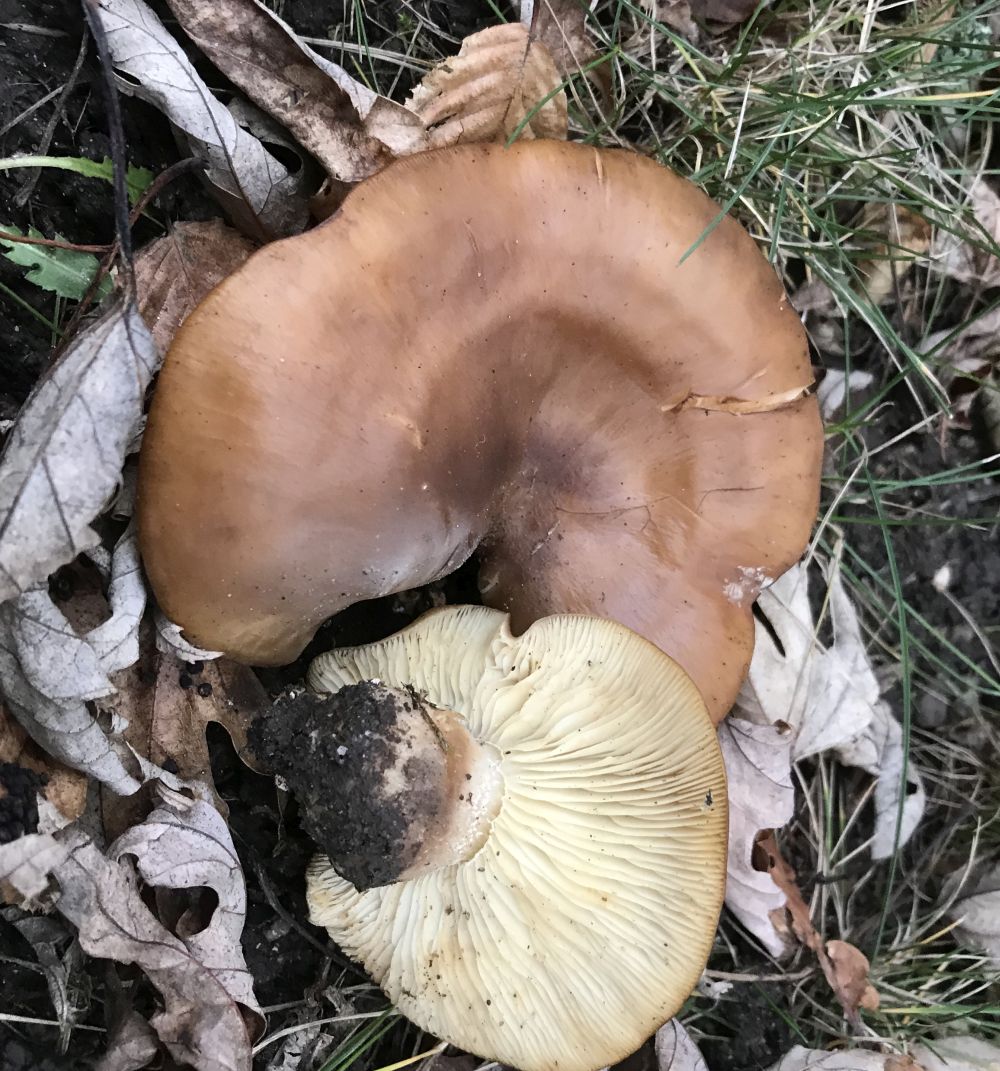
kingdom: Fungi
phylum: Basidiomycota
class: Agaricomycetes
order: Agaricales
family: Tricholomataceae
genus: Lepista
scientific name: Lepista personata
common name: bleg hekseringshat
